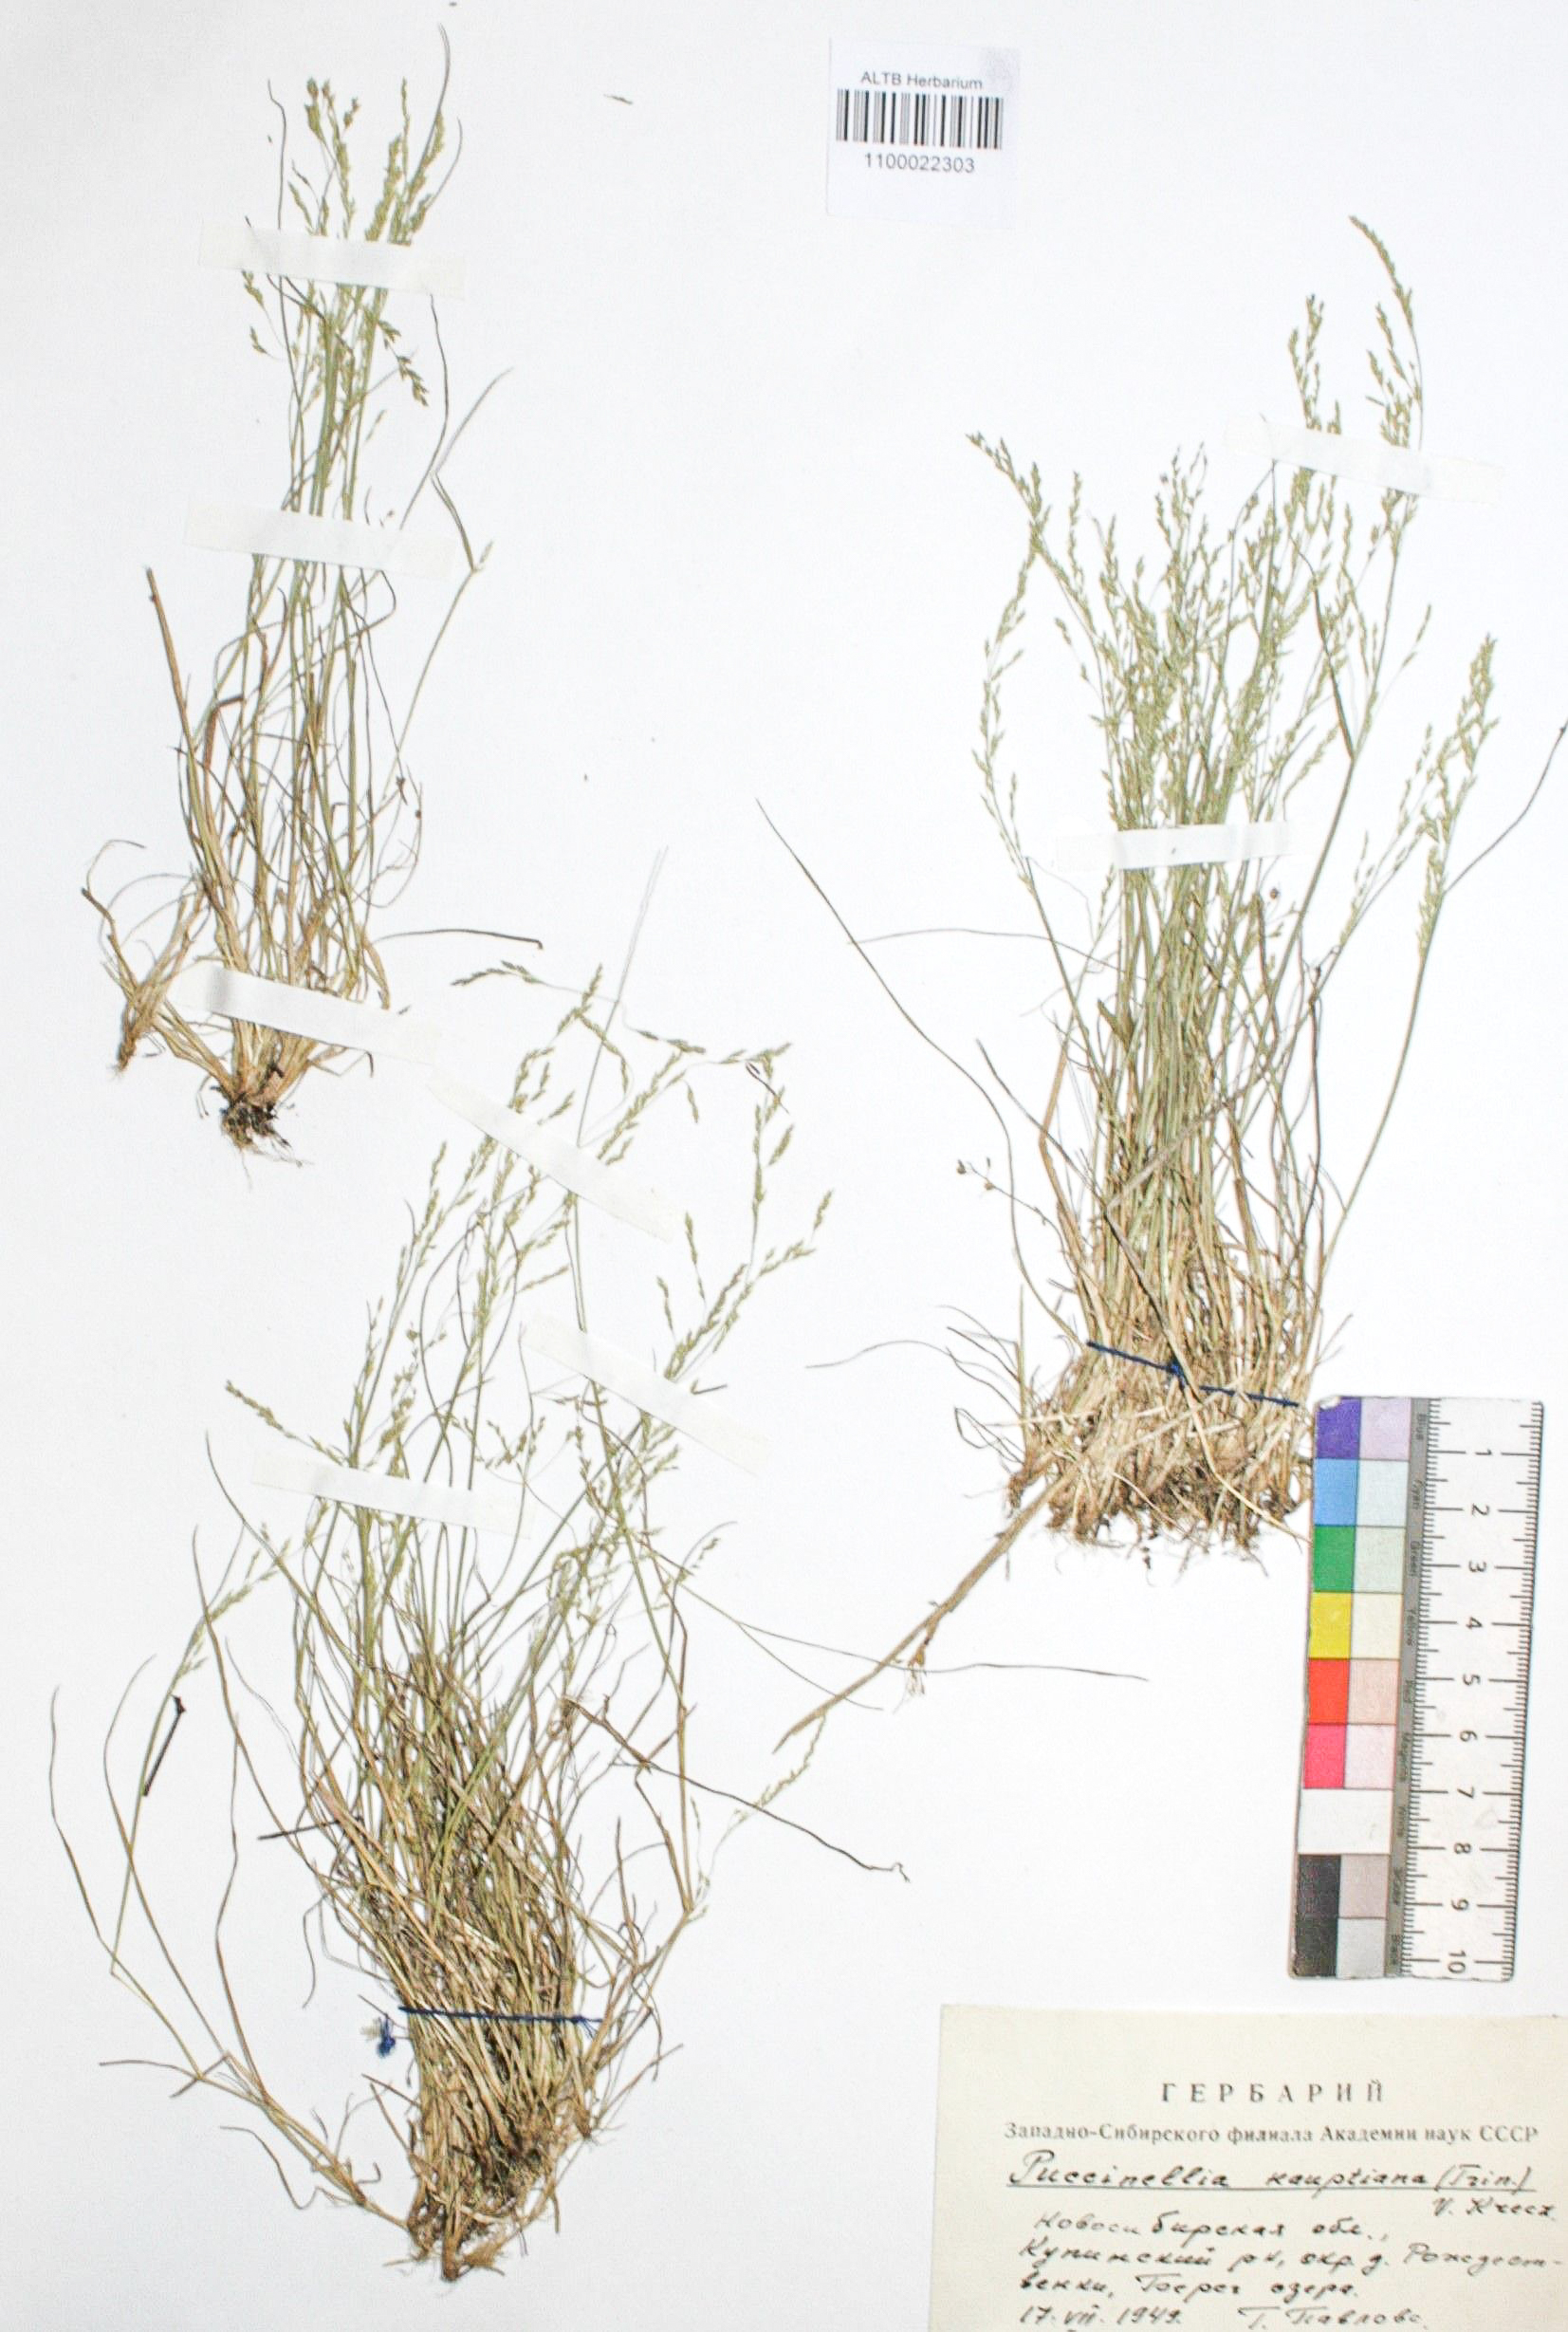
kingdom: Plantae
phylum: Tracheophyta
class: Liliopsida
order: Poales
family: Poaceae
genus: Puccinellia
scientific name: Puccinellia hauptiana
